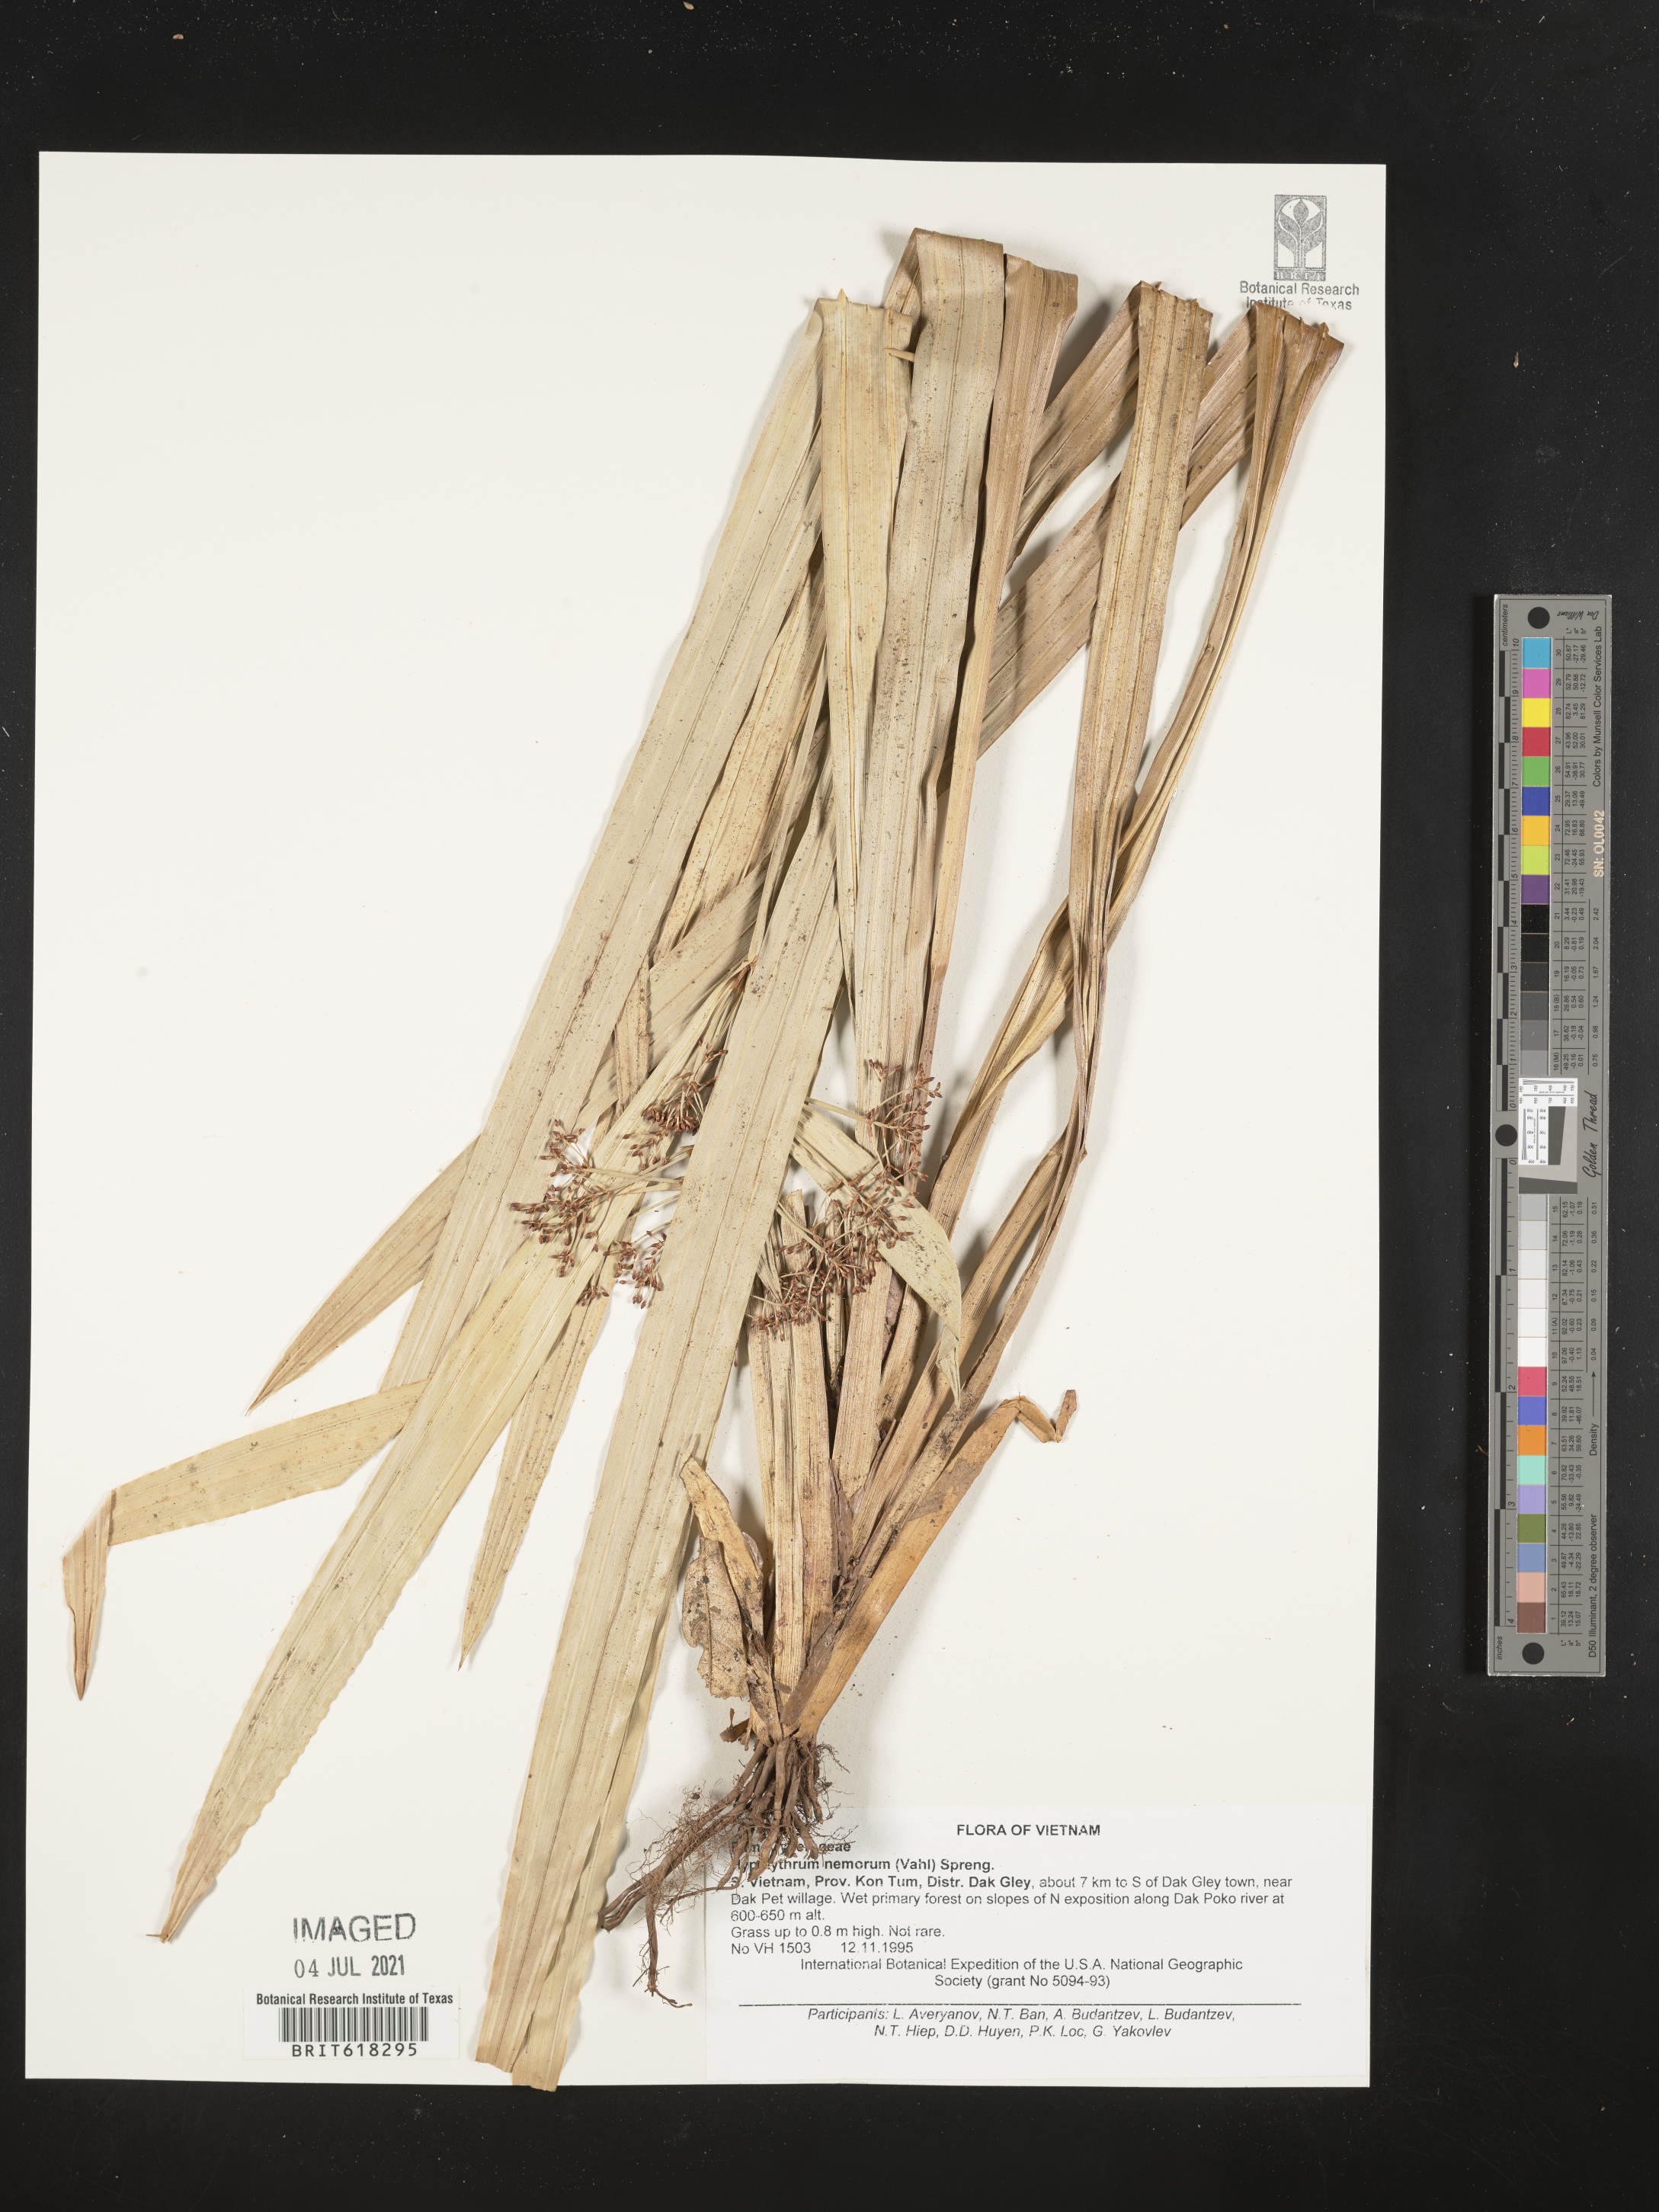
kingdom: Plantae
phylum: Tracheophyta
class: Liliopsida
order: Poales
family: Cyperaceae
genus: Hypolytrum
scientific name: Hypolytrum nemorum
